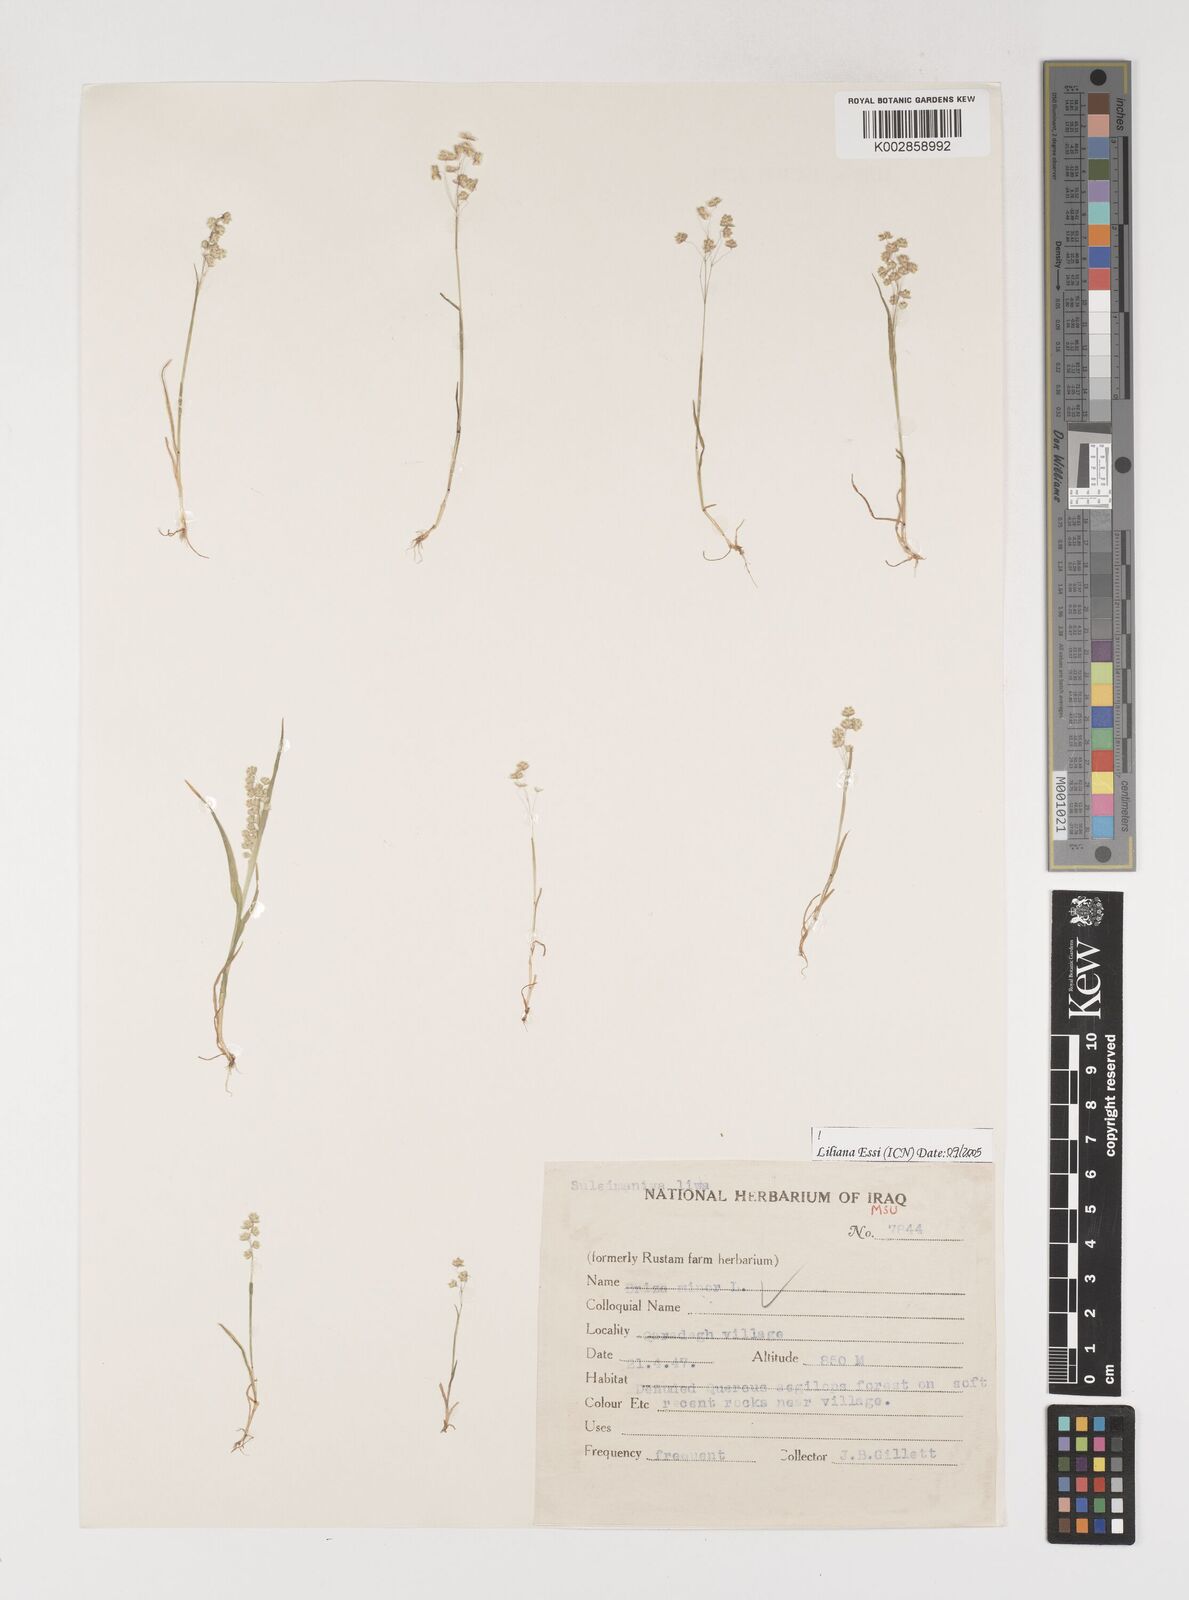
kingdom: Plantae
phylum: Tracheophyta
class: Liliopsida
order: Poales
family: Poaceae
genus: Briza
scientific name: Briza minor
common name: Lesser quaking-grass
